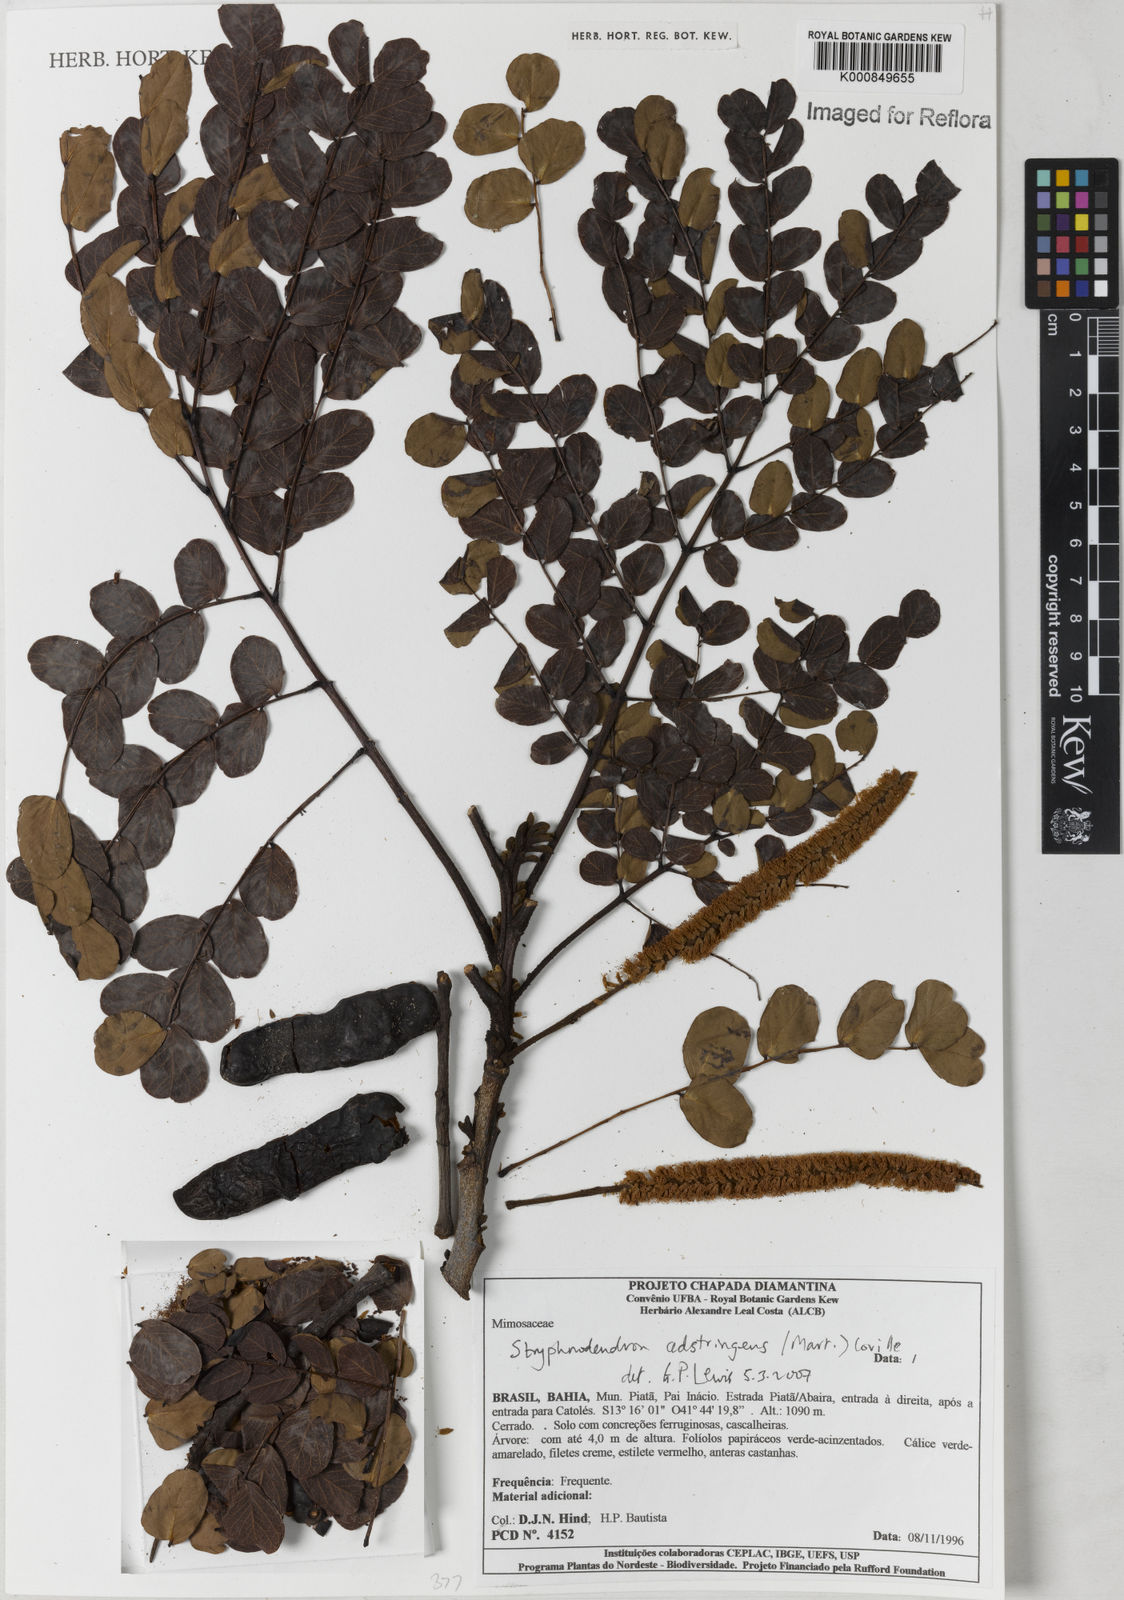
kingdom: Plantae
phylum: Tracheophyta
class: Magnoliopsida
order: Fabales
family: Fabaceae
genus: Stryphnodendron
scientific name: Stryphnodendron adstringens
